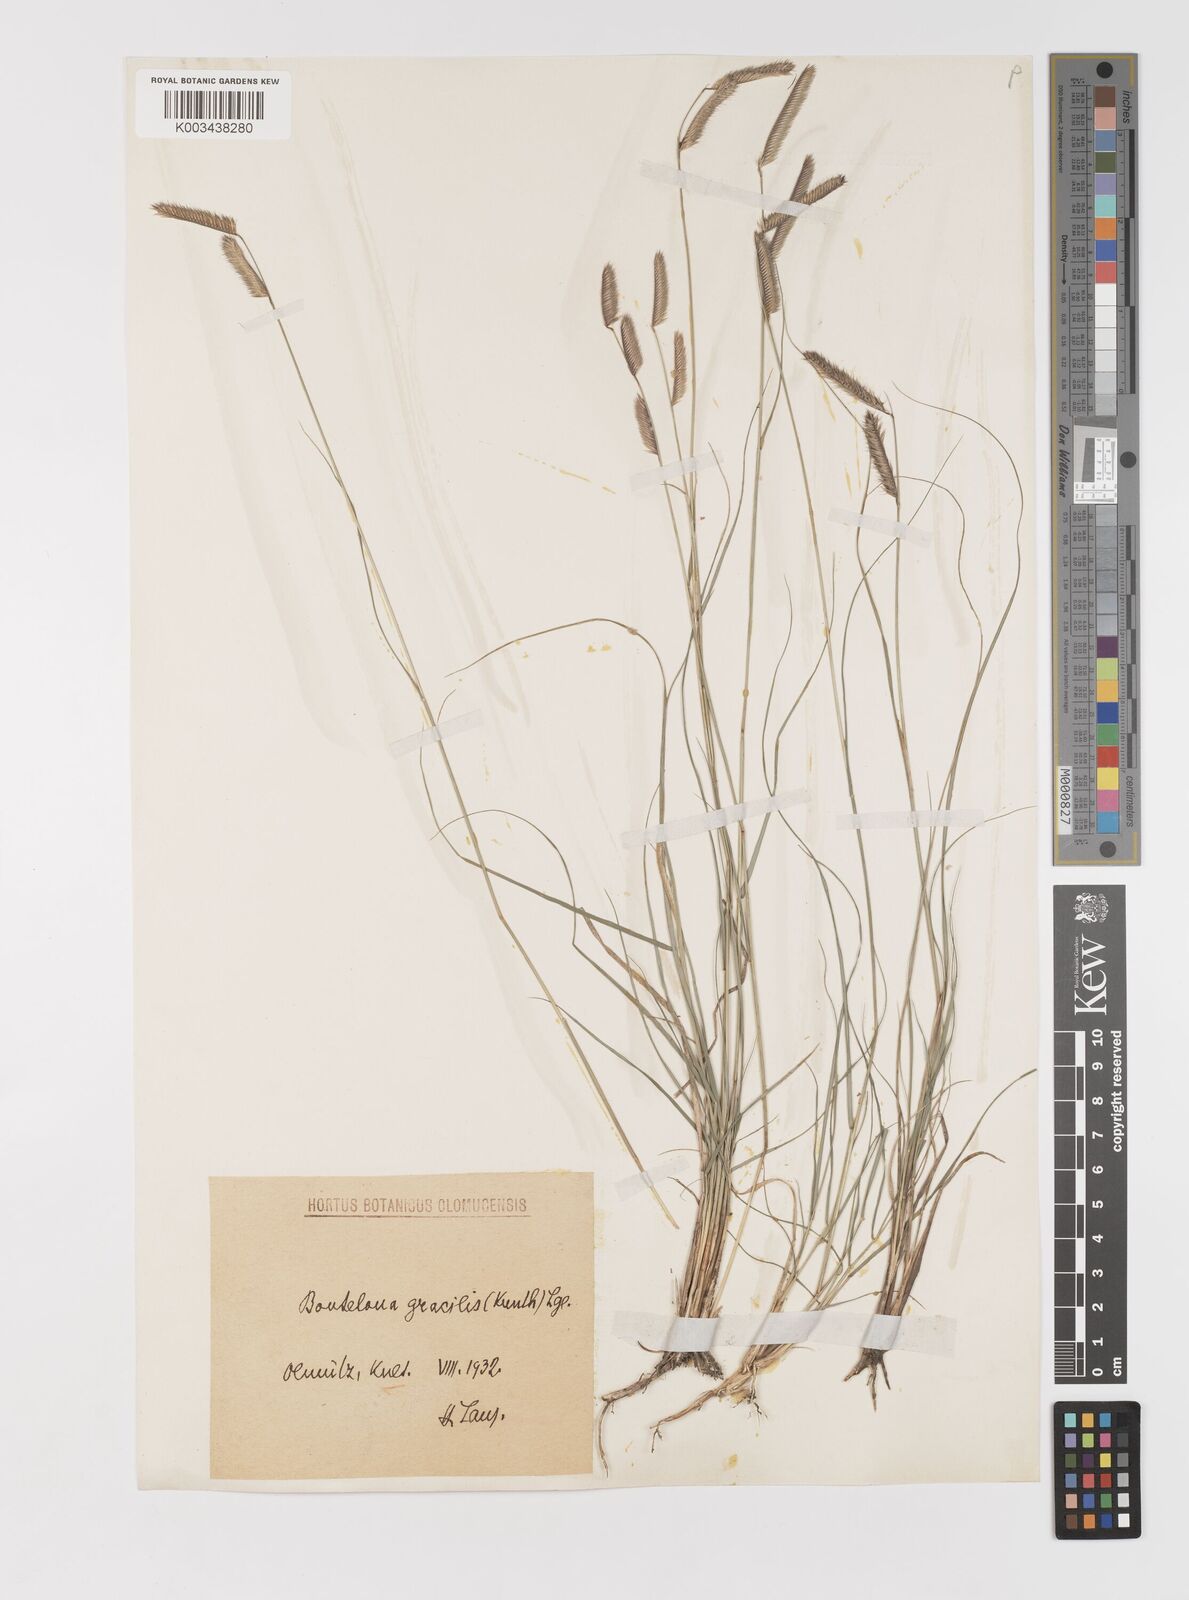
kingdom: Plantae
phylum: Tracheophyta
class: Liliopsida
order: Poales
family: Poaceae
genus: Bouteloua
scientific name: Bouteloua gracilis
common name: Blue grama
